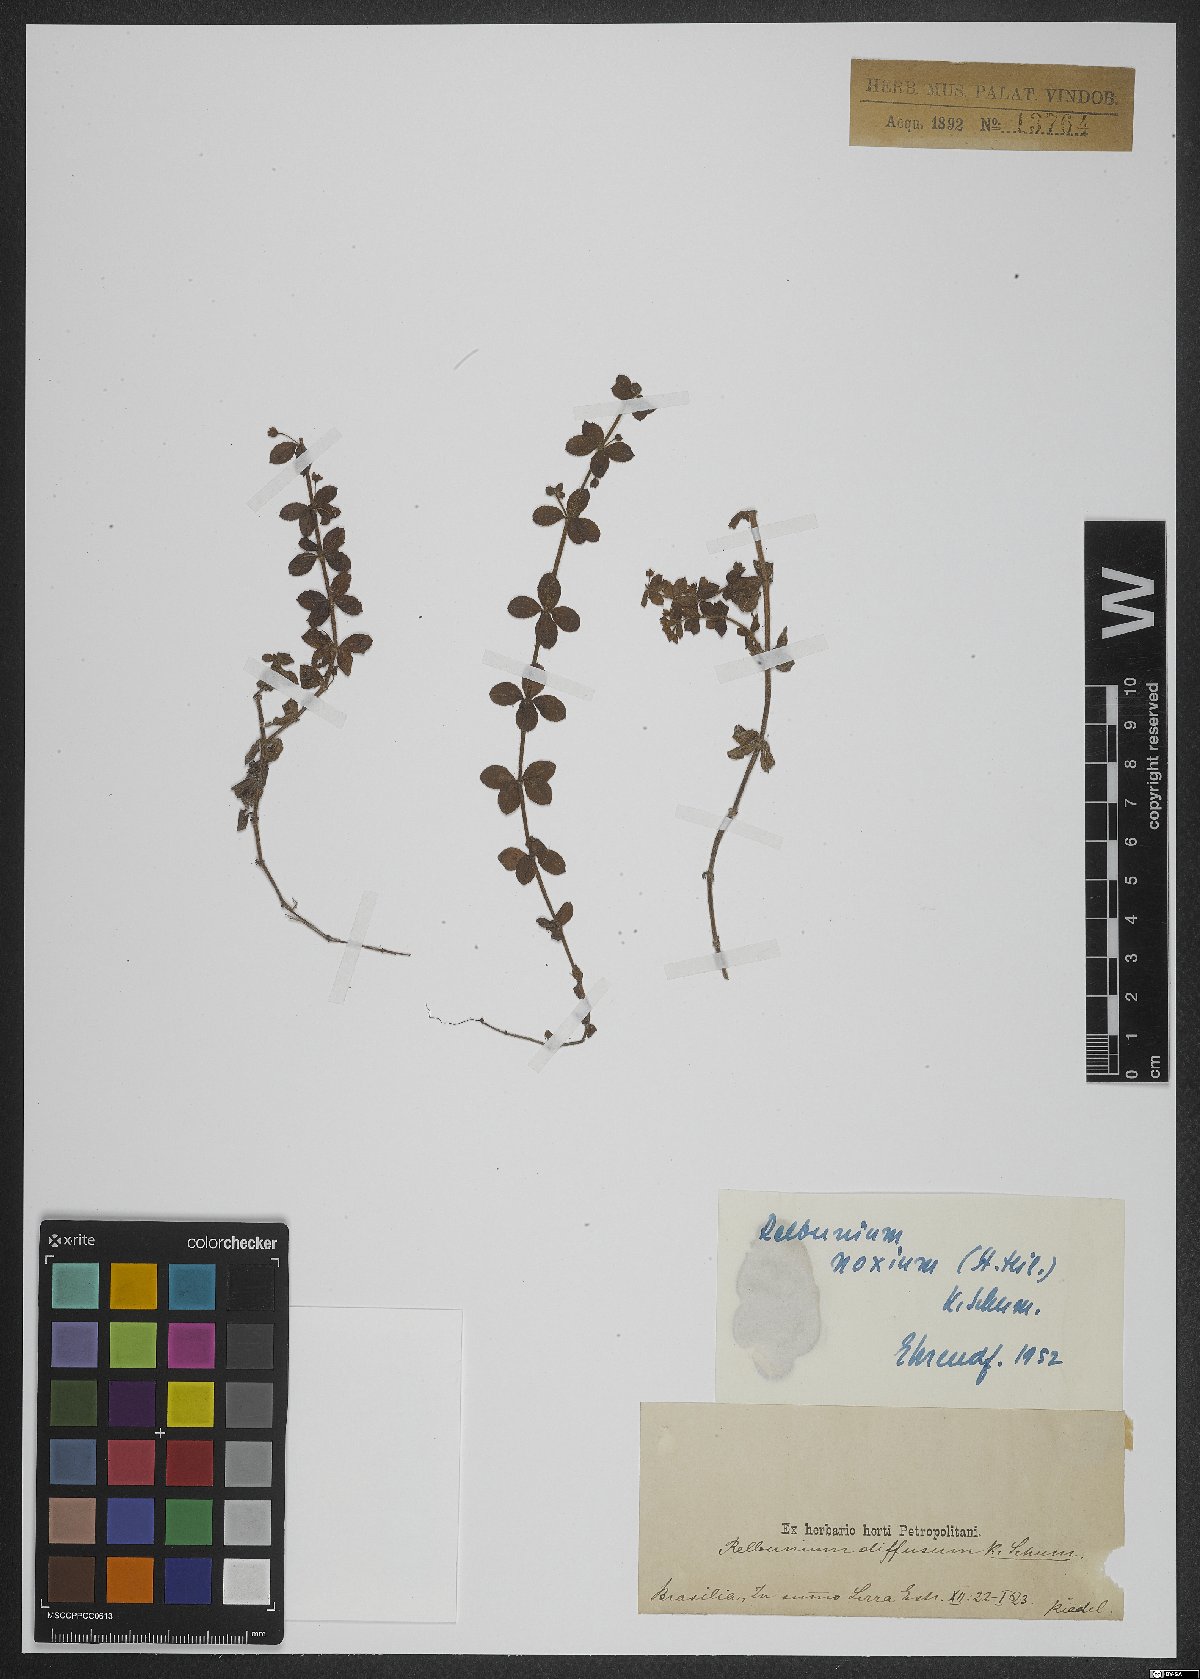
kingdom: Plantae
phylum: Tracheophyta
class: Magnoliopsida
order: Gentianales
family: Rubiaceae
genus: Galium
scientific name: Galium noxium
